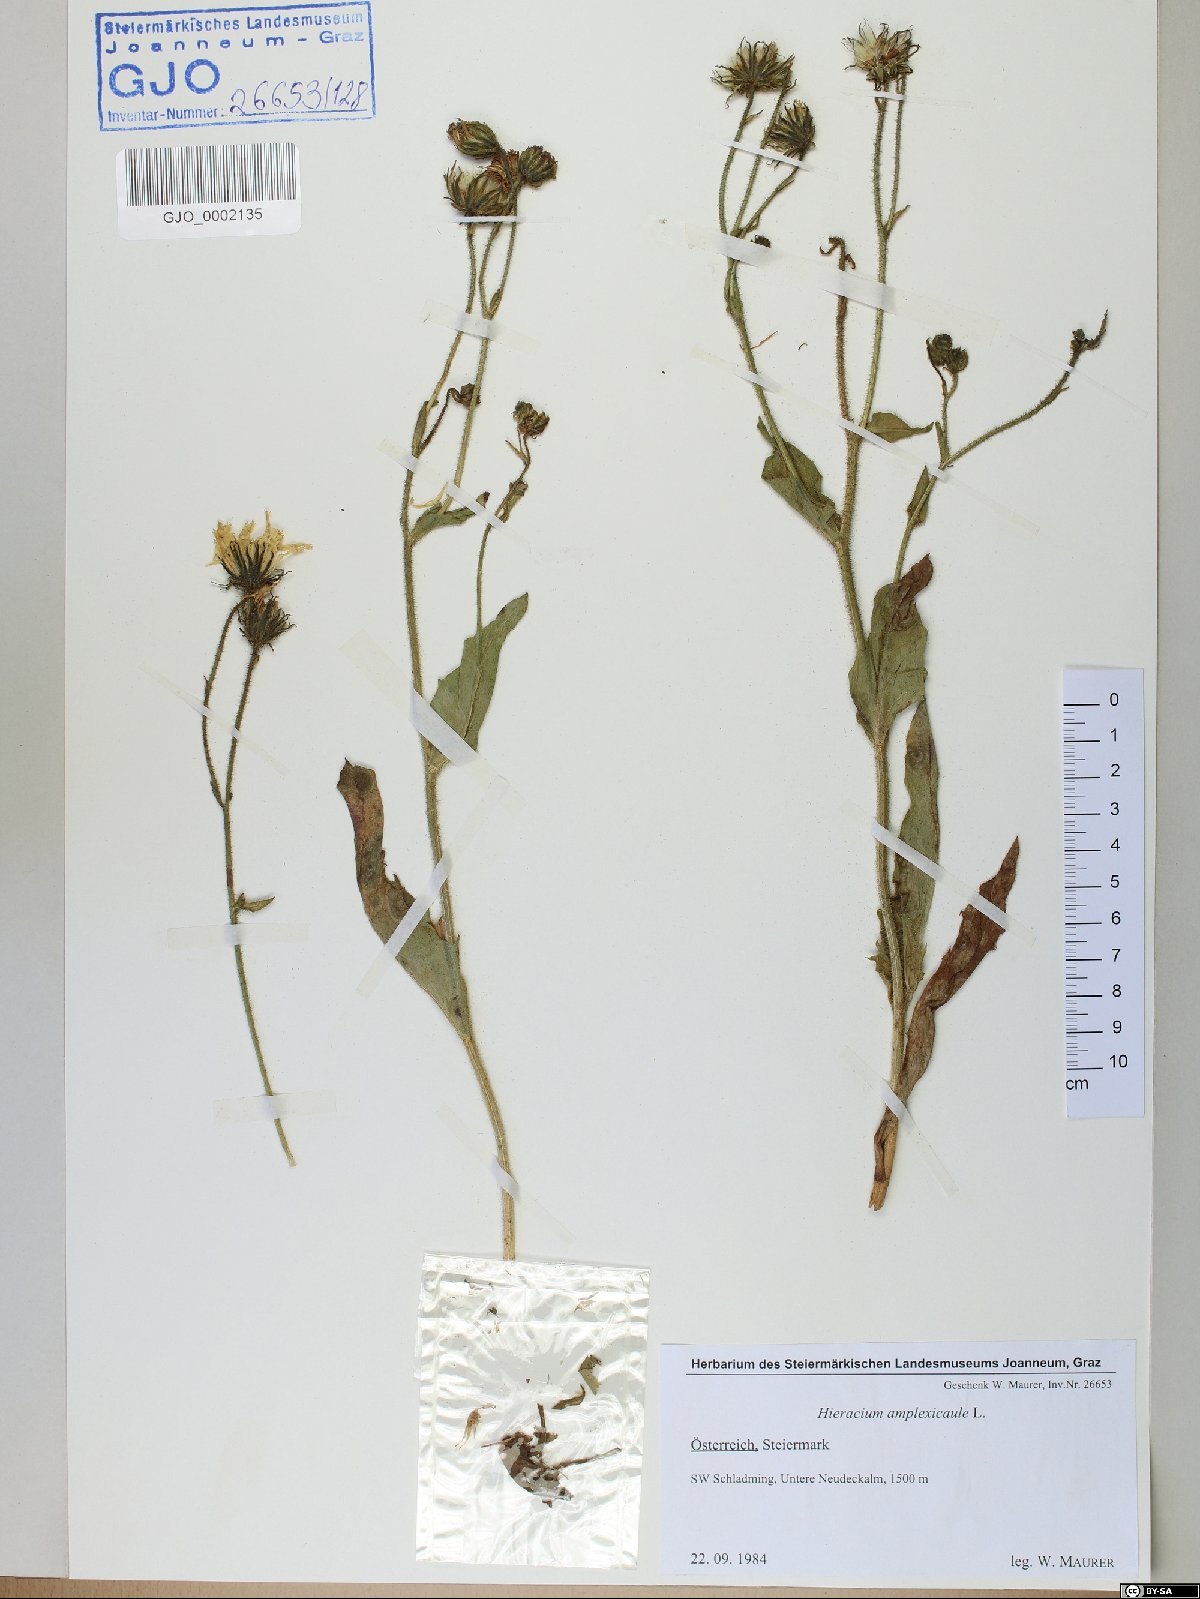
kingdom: Plantae
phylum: Tracheophyta
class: Magnoliopsida
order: Asterales
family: Asteraceae
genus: Hieracium
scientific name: Hieracium amplexicaule
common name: Sticky hawkweed
